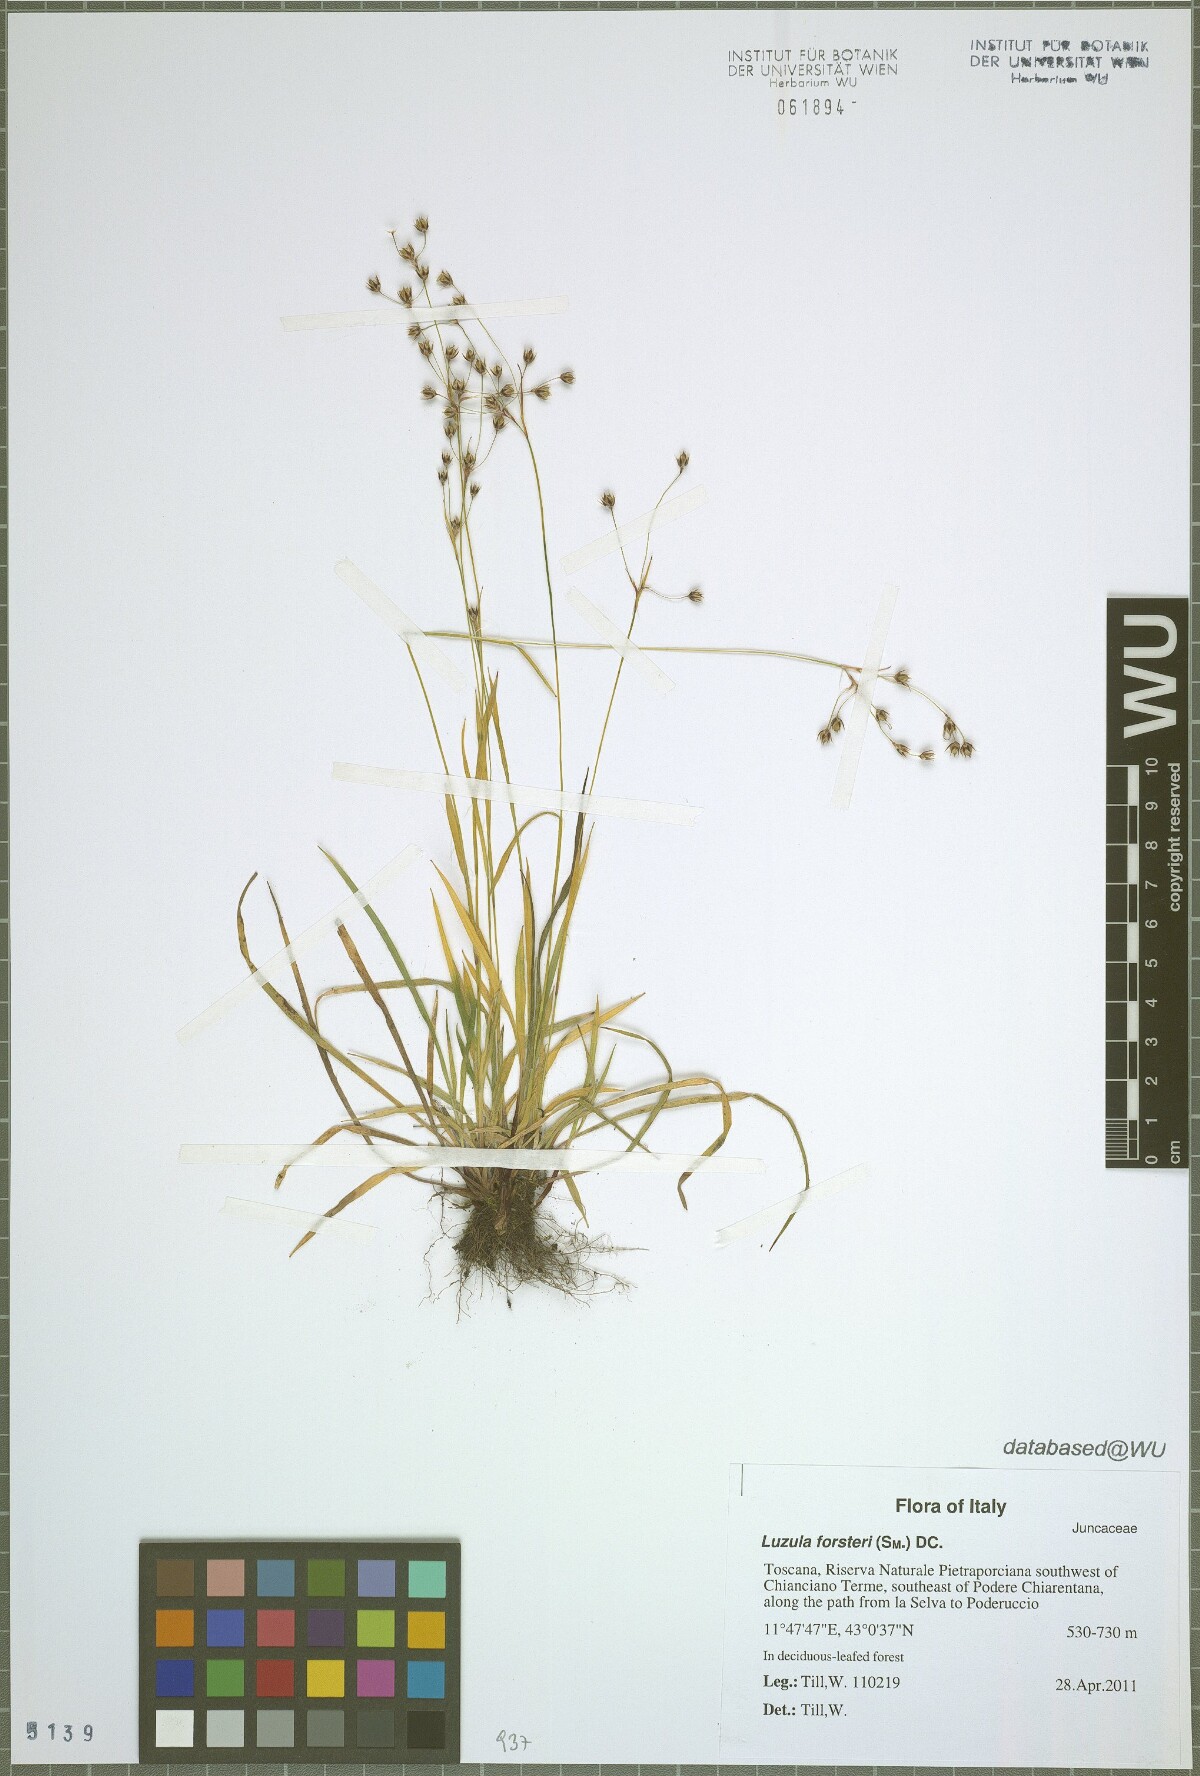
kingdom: Plantae
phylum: Tracheophyta
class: Liliopsida
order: Poales
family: Juncaceae
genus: Luzula
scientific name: Luzula forsteri
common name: Southern wood-rush
